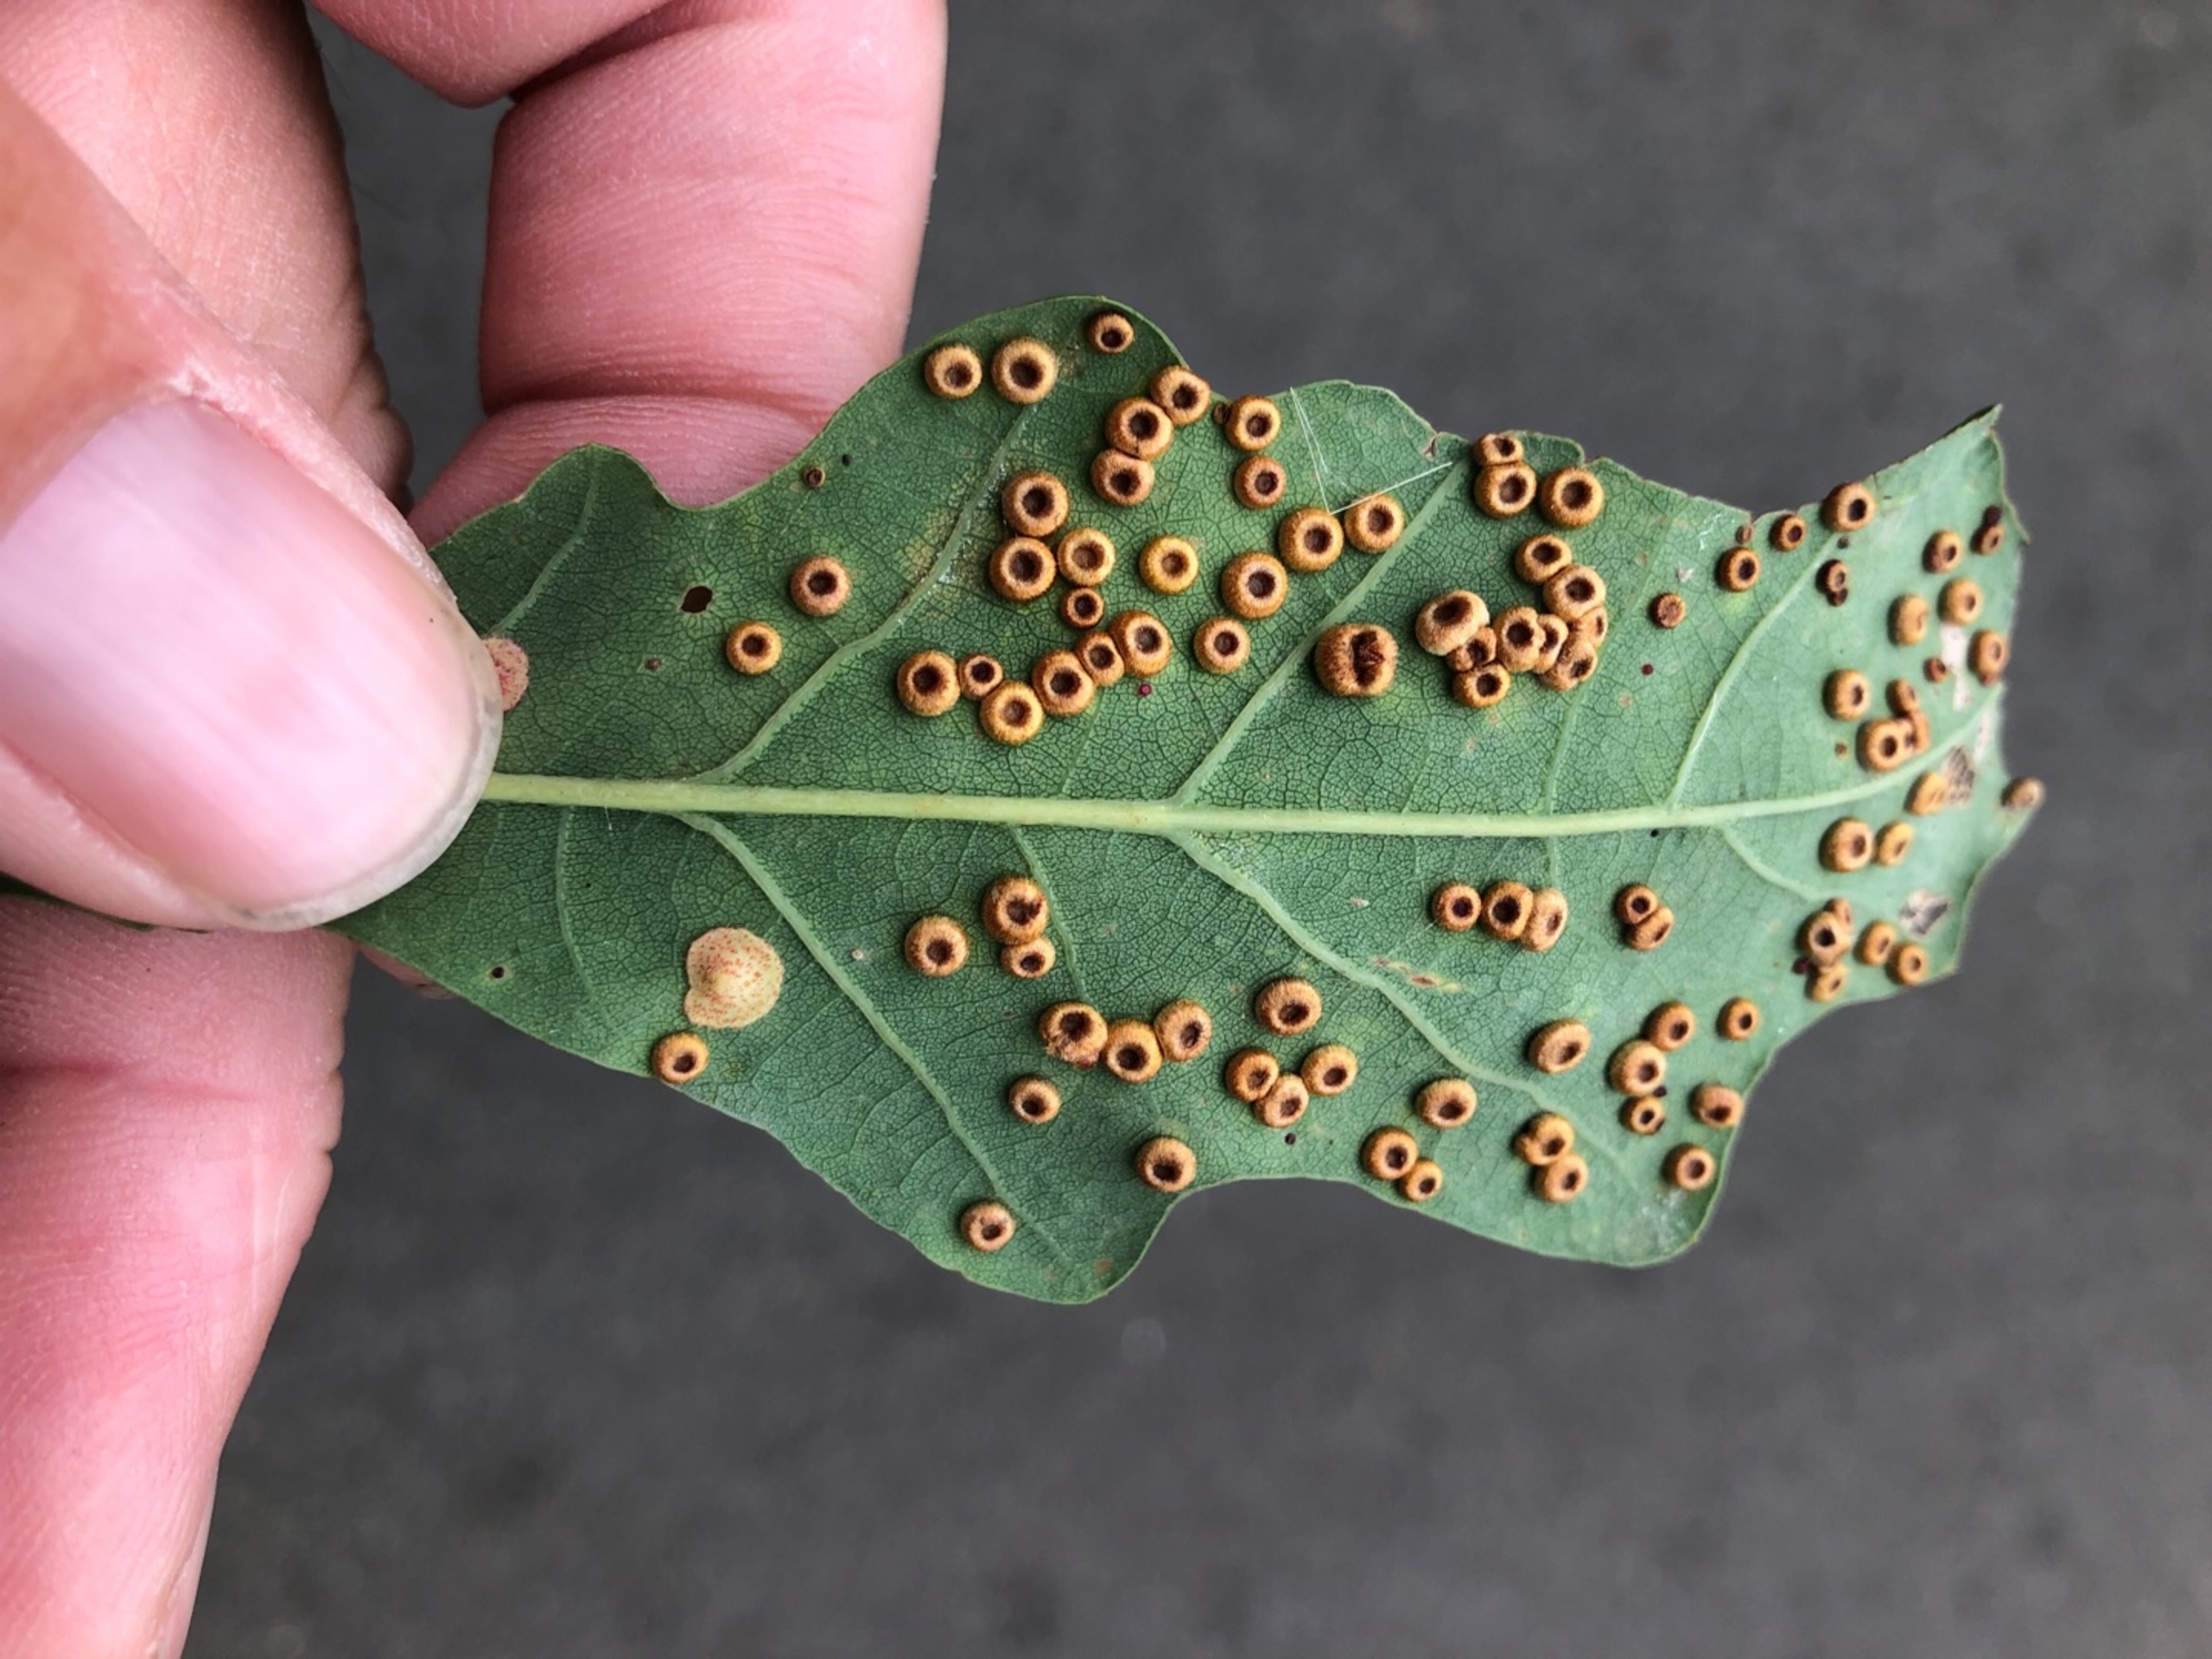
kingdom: Animalia
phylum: Arthropoda
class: Insecta
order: Hymenoptera
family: Cynipidae
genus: Neuroterus
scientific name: Neuroterus numismalis
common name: Knapgalhveps
